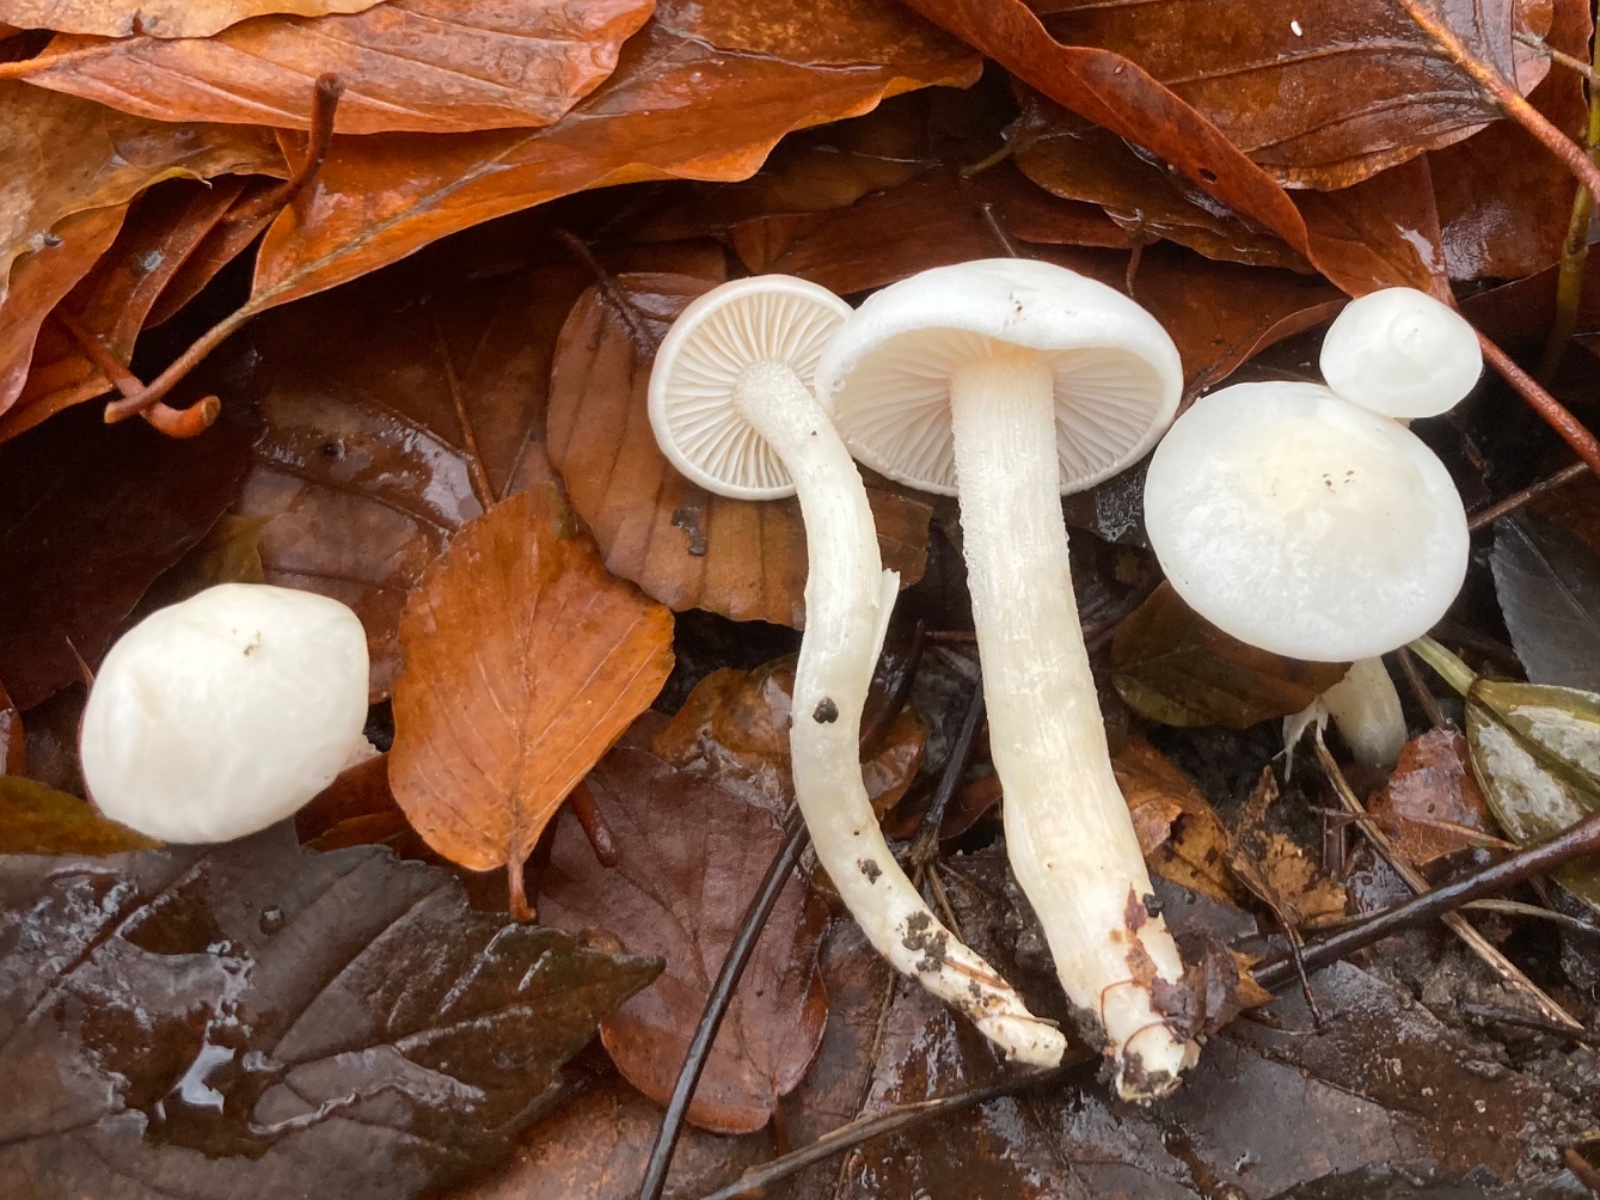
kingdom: Fungi
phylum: Basidiomycota
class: Agaricomycetes
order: Agaricales
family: Hygrophoraceae
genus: Hygrophorus
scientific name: Hygrophorus eburneus
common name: elfenbens-sneglehat
